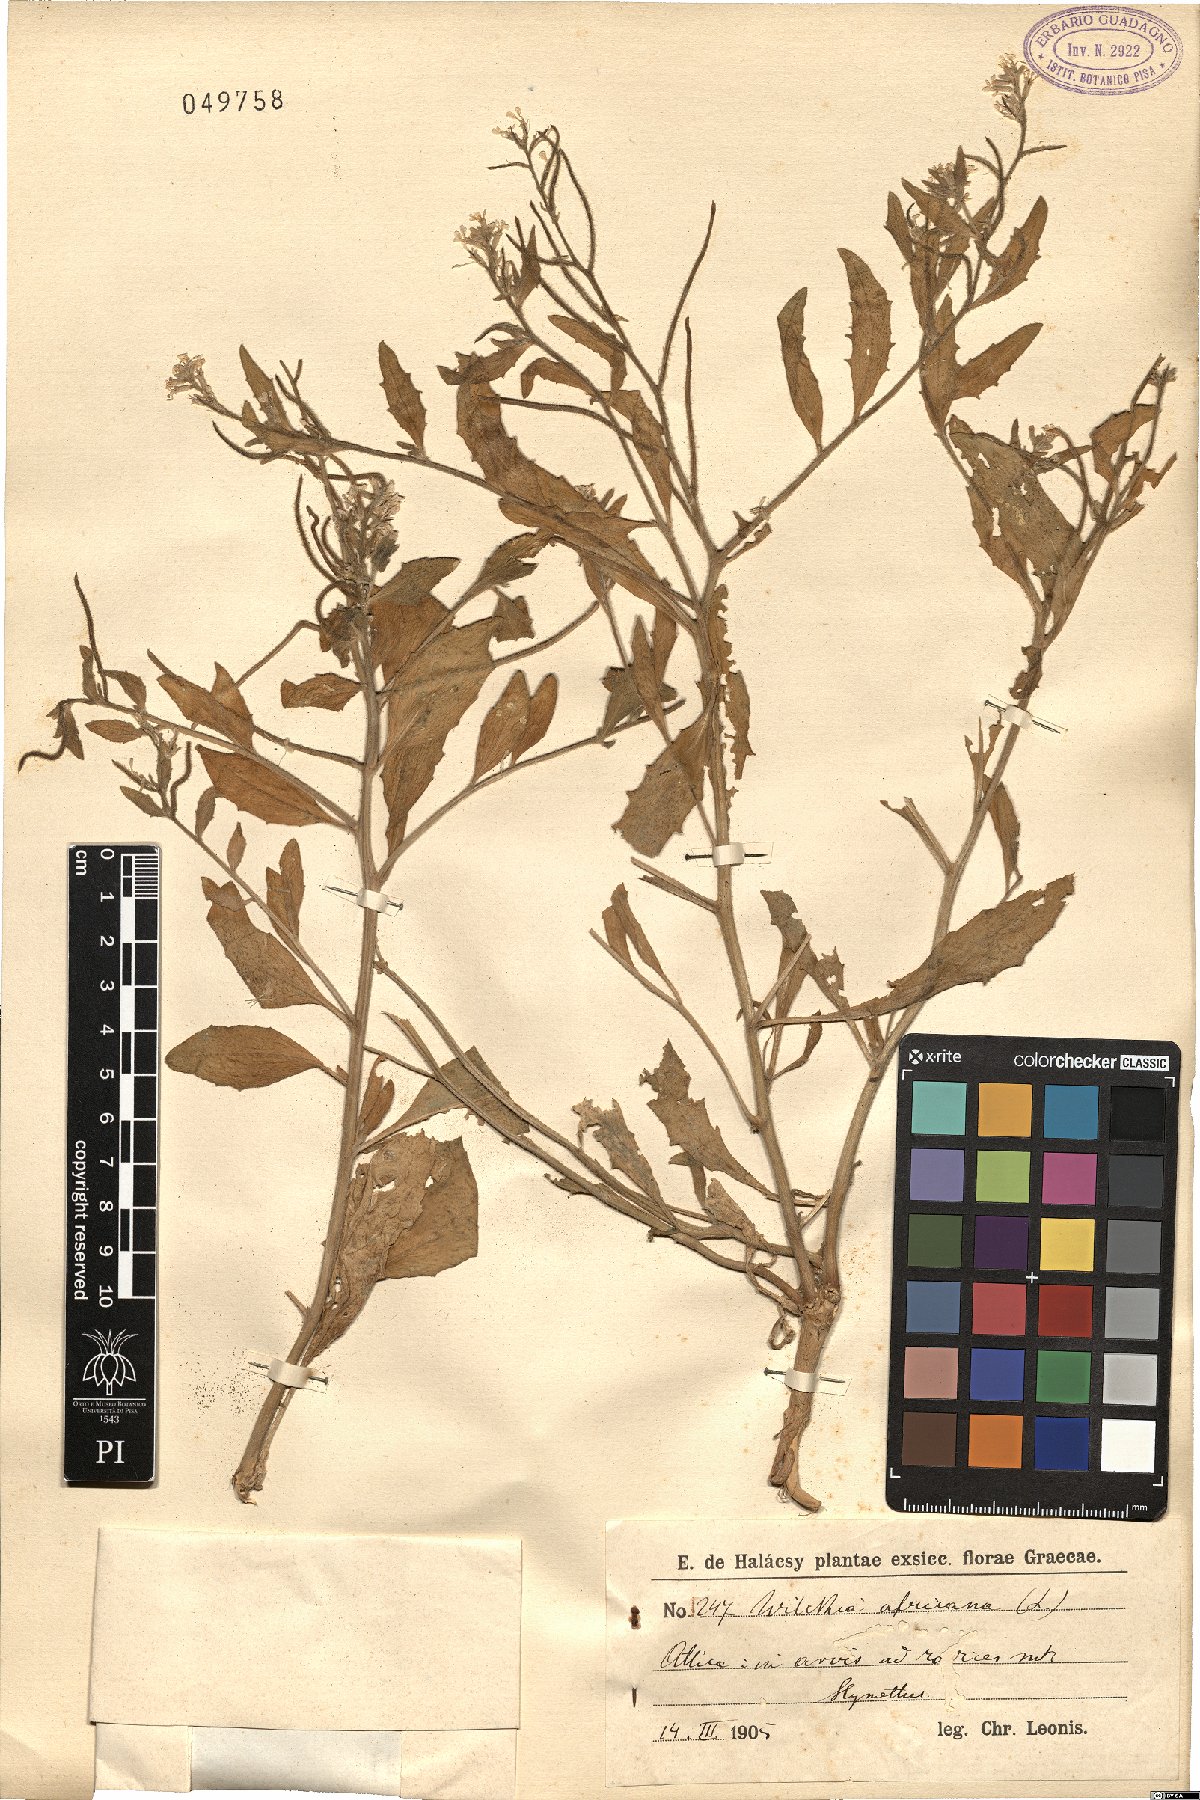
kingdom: Plantae
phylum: Tracheophyta
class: Magnoliopsida
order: Brassicales
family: Brassicaceae
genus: Strigosella
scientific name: Strigosella africana
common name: African mustard
